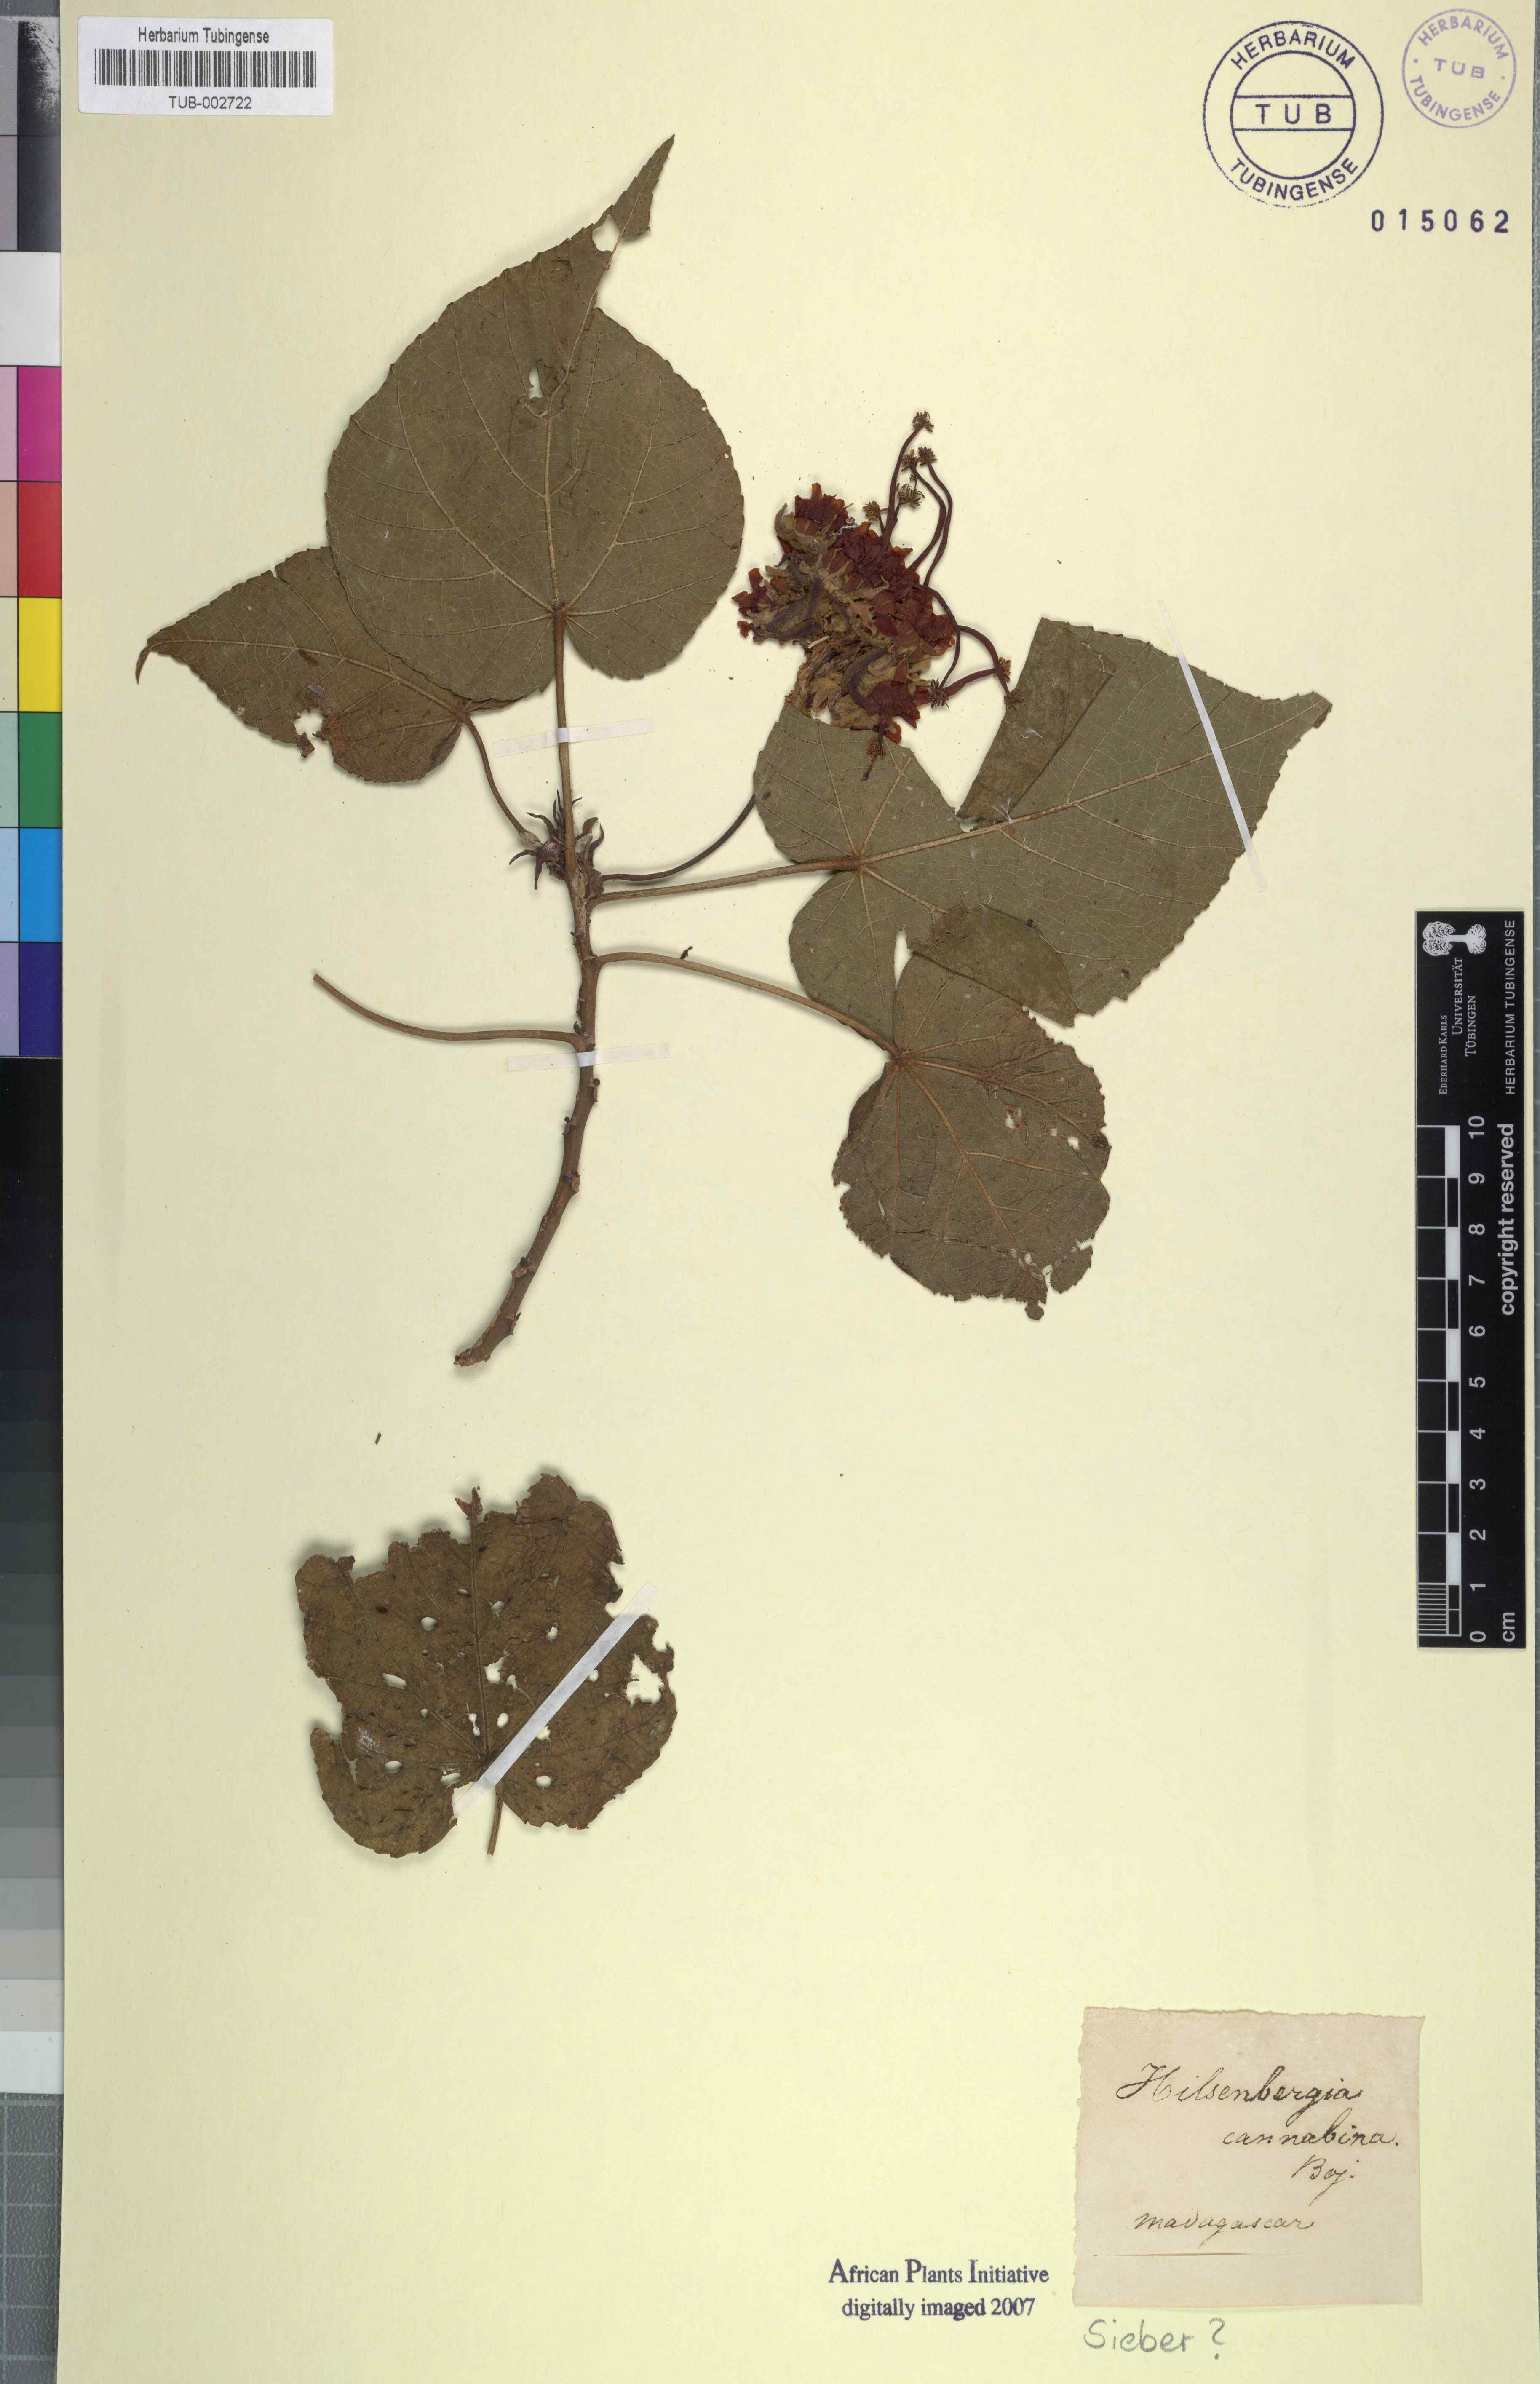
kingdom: Plantae
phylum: Tracheophyta
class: Magnoliopsida
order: Malvales
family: Malvaceae
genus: Dombeya
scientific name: Dombeya cannabina
